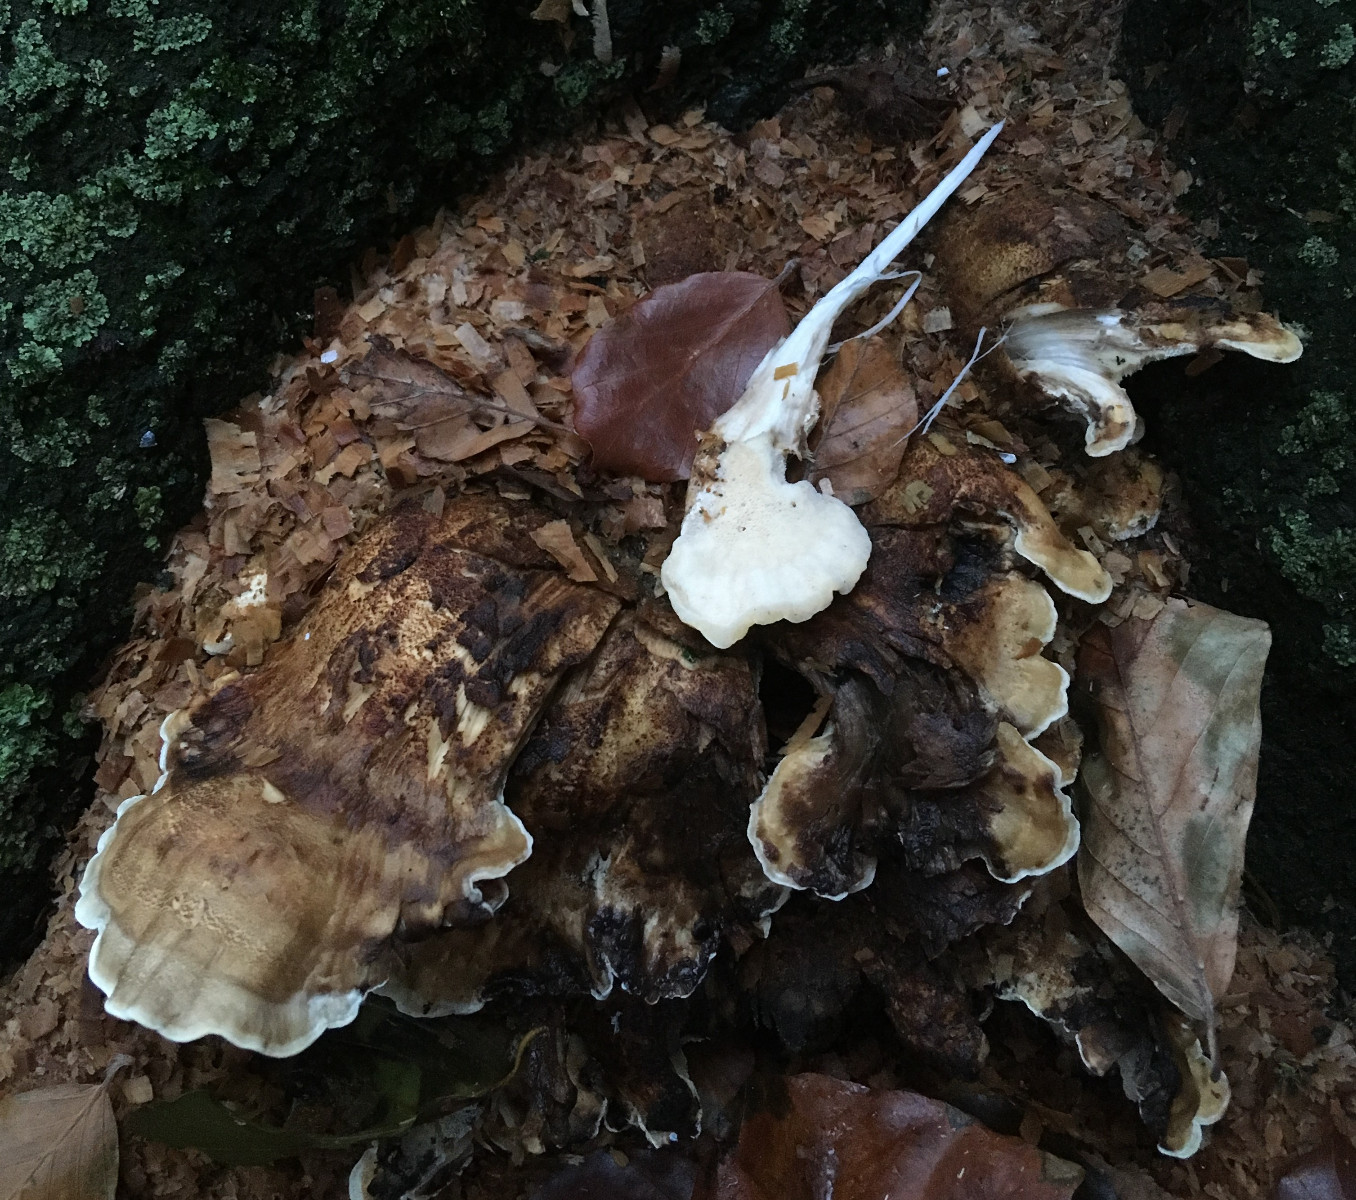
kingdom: Fungi
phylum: Basidiomycota
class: Agaricomycetes
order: Polyporales
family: Meripilaceae
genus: Meripilus
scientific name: Meripilus giganteus
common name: kæmpeporesvamp
